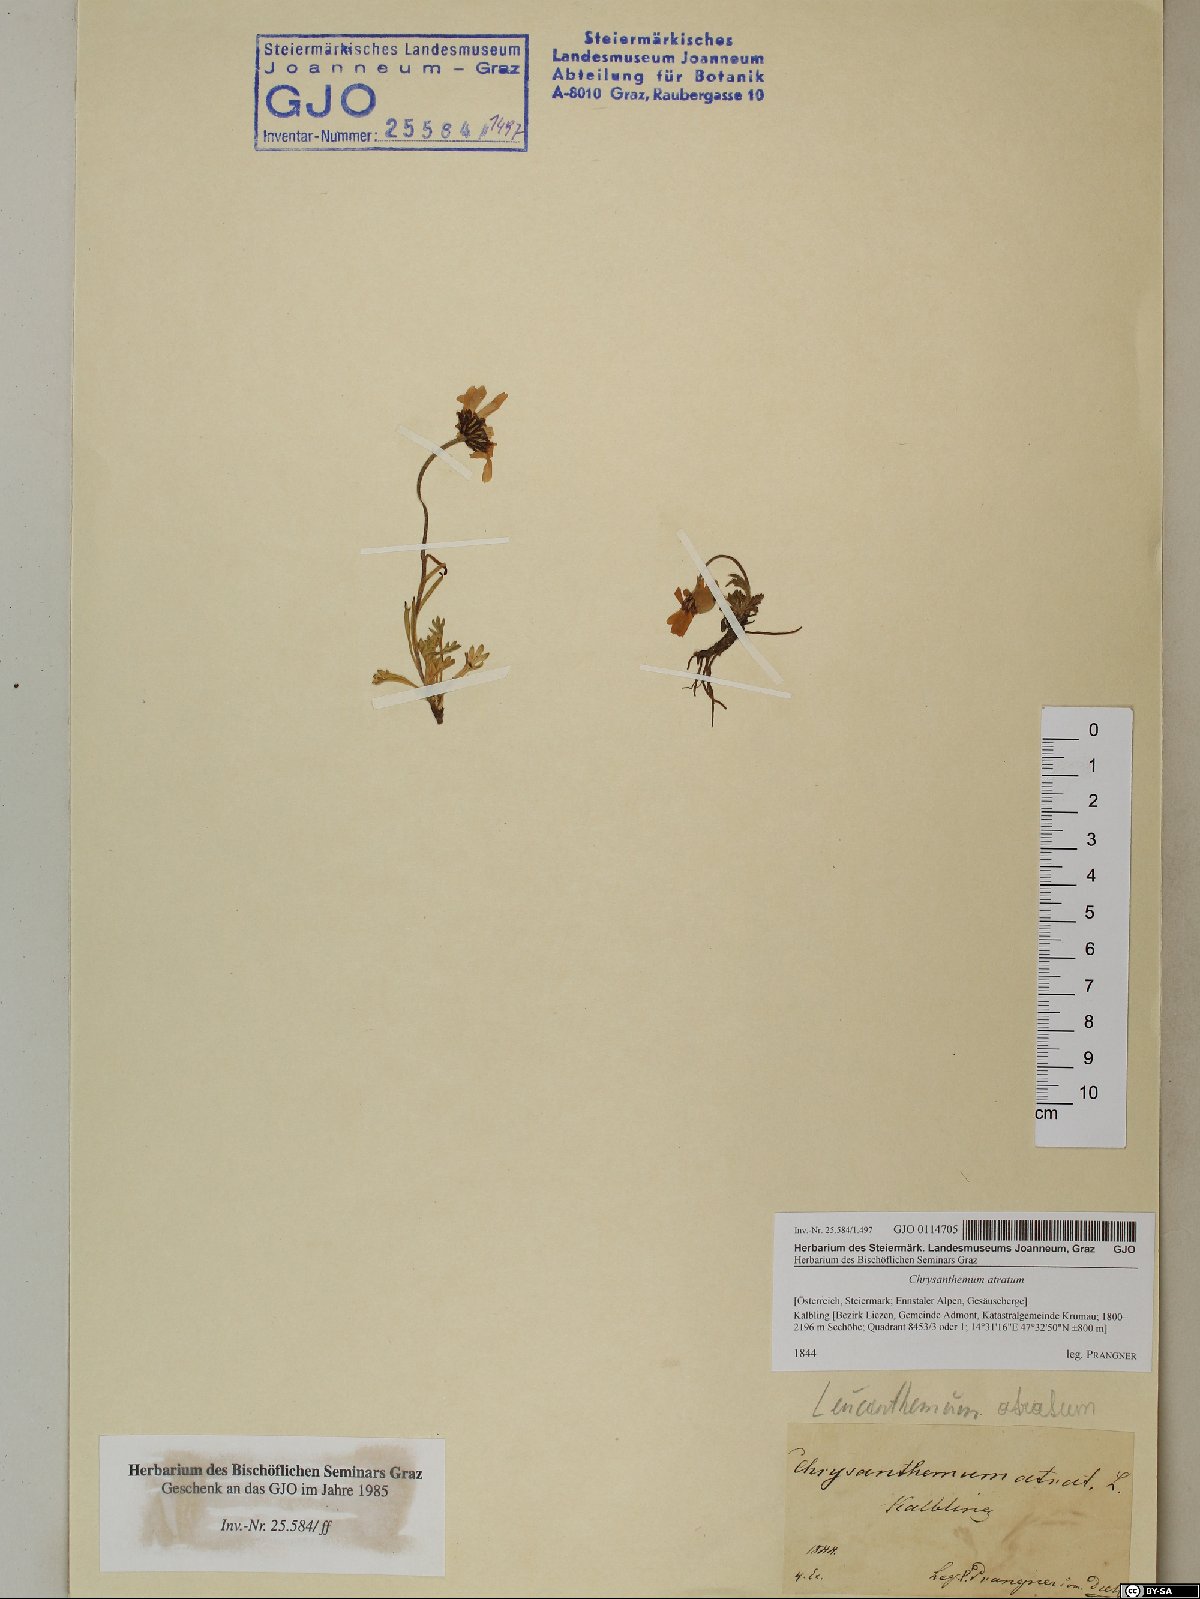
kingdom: Plantae
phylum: Tracheophyta
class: Magnoliopsida
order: Asterales
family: Asteraceae
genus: Leucanthemum
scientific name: Leucanthemum atratum
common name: Saw-leaved moon-daisy
